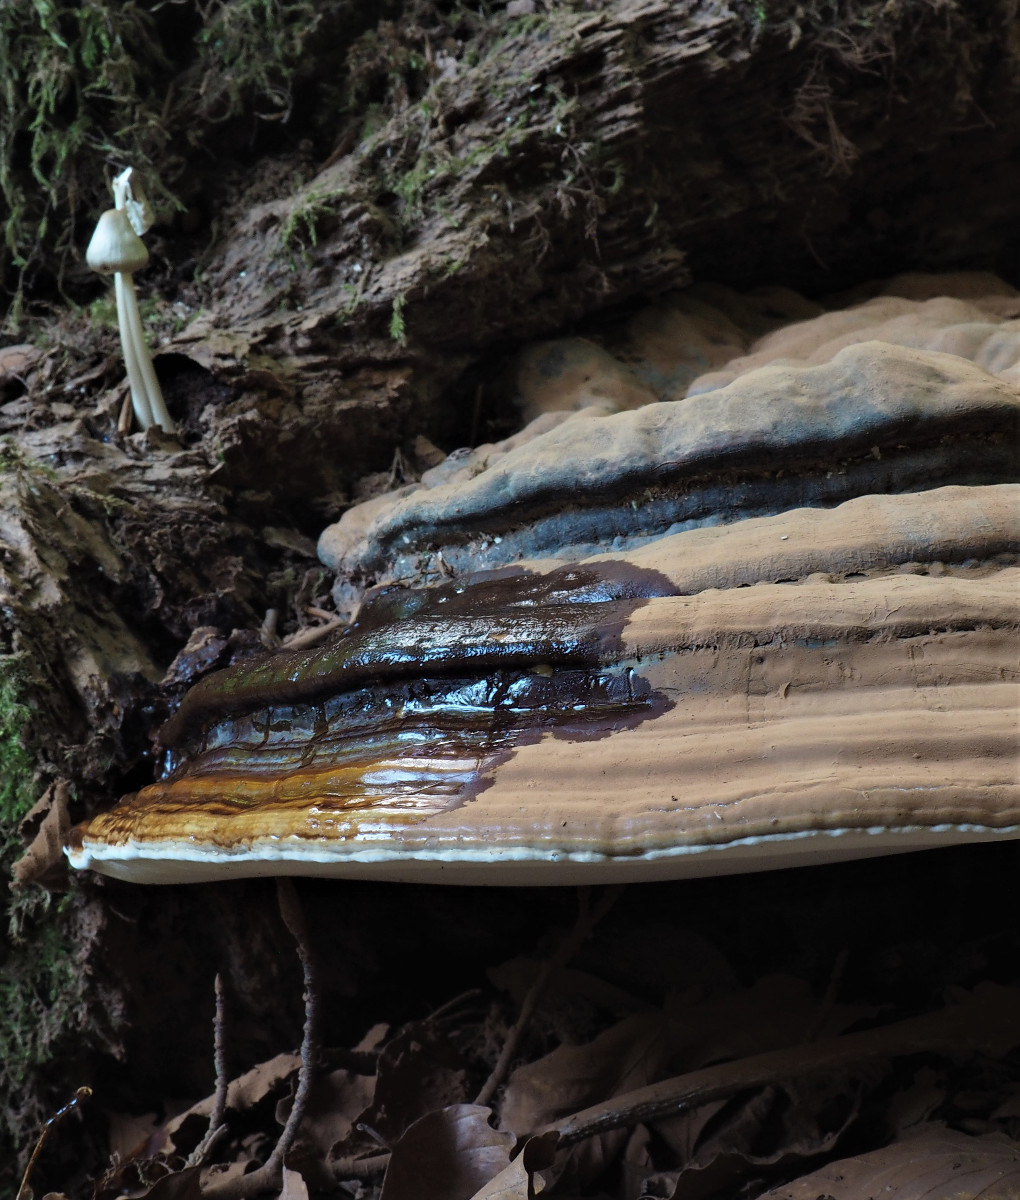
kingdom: Fungi
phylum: Basidiomycota
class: Agaricomycetes
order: Polyporales
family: Polyporaceae
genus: Ganoderma
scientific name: Ganoderma pfeifferi
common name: kobberrød lakporesvamp
